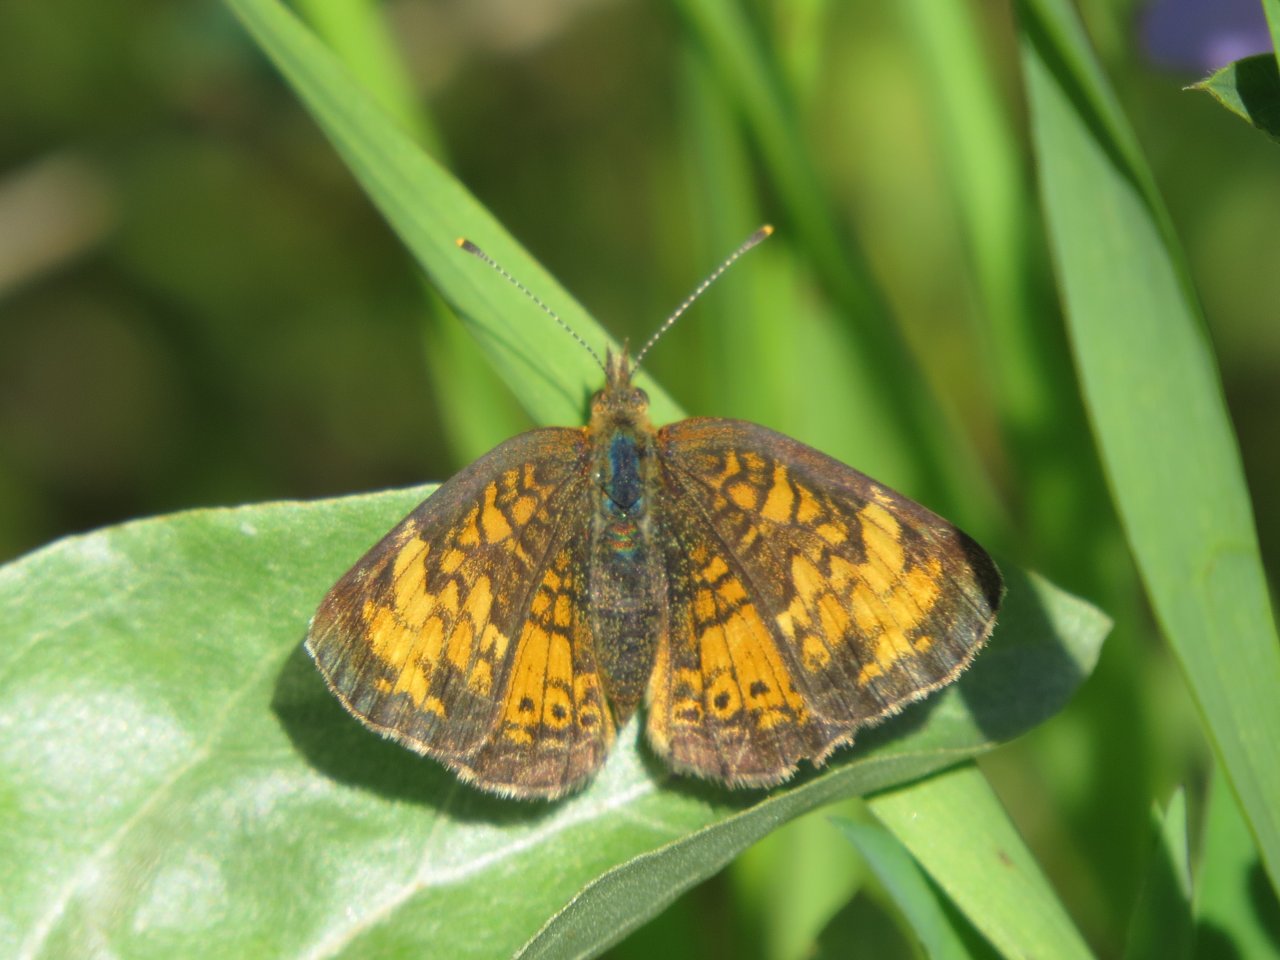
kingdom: Animalia
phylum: Arthropoda
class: Insecta
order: Lepidoptera
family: Nymphalidae
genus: Phyciodes
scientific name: Phyciodes tharos
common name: Northern Crescent
